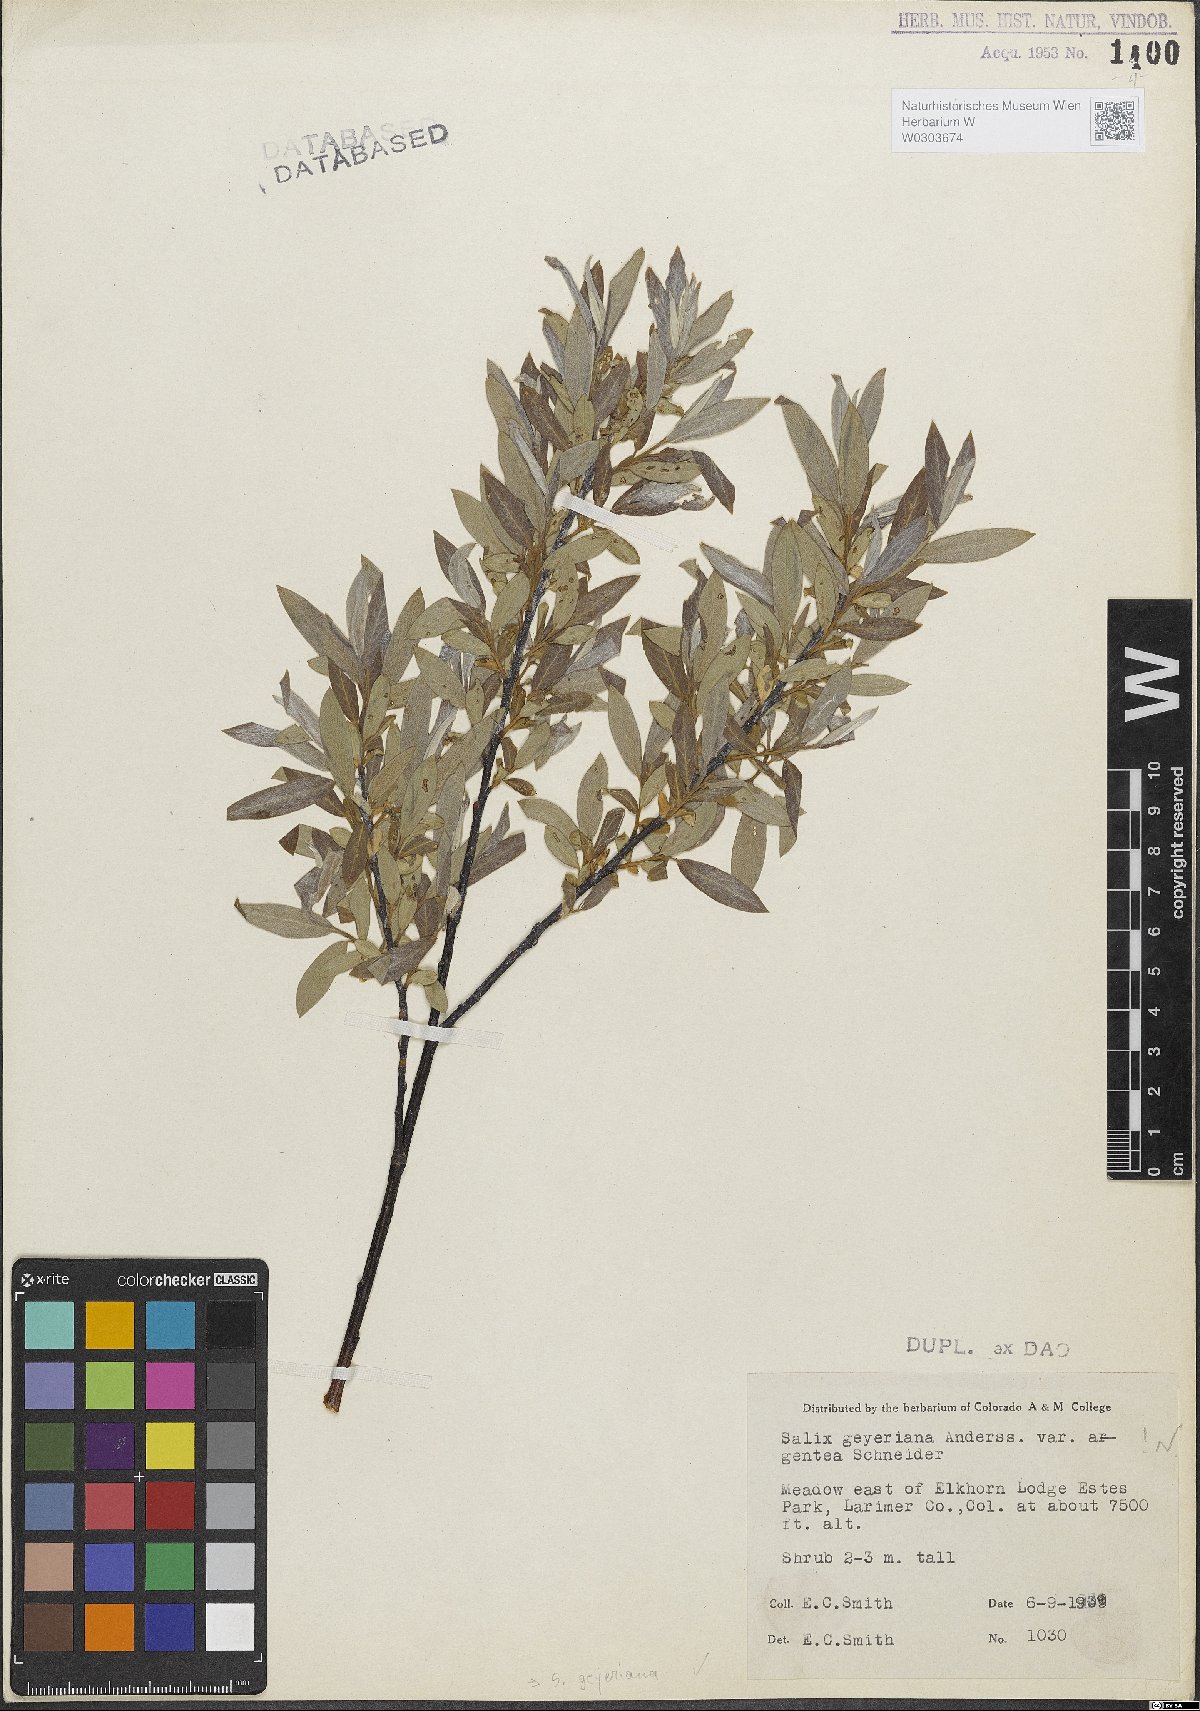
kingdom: Plantae
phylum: Tracheophyta
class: Magnoliopsida
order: Malpighiales
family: Salicaceae
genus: Salix
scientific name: Salix geyeriana
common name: Geyer's willow
